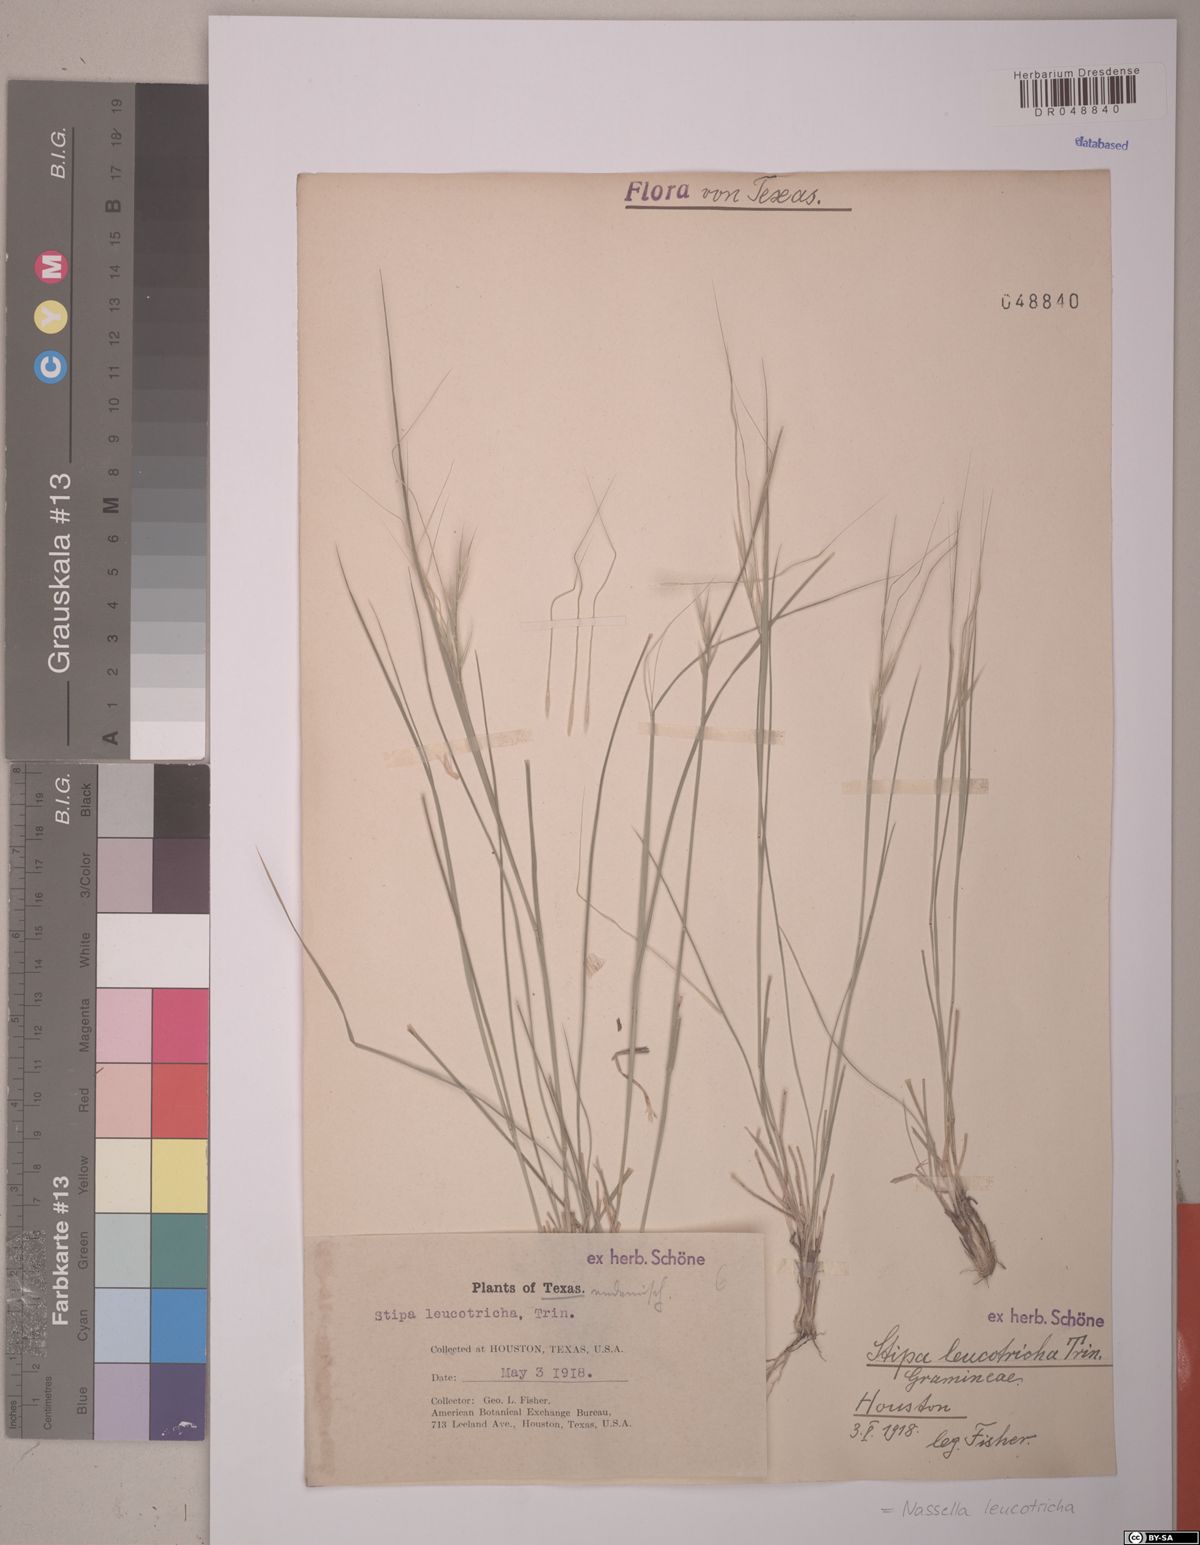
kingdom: Plantae
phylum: Tracheophyta
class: Liliopsida
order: Poales
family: Poaceae
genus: Nassella
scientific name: Nassella leucotricha
